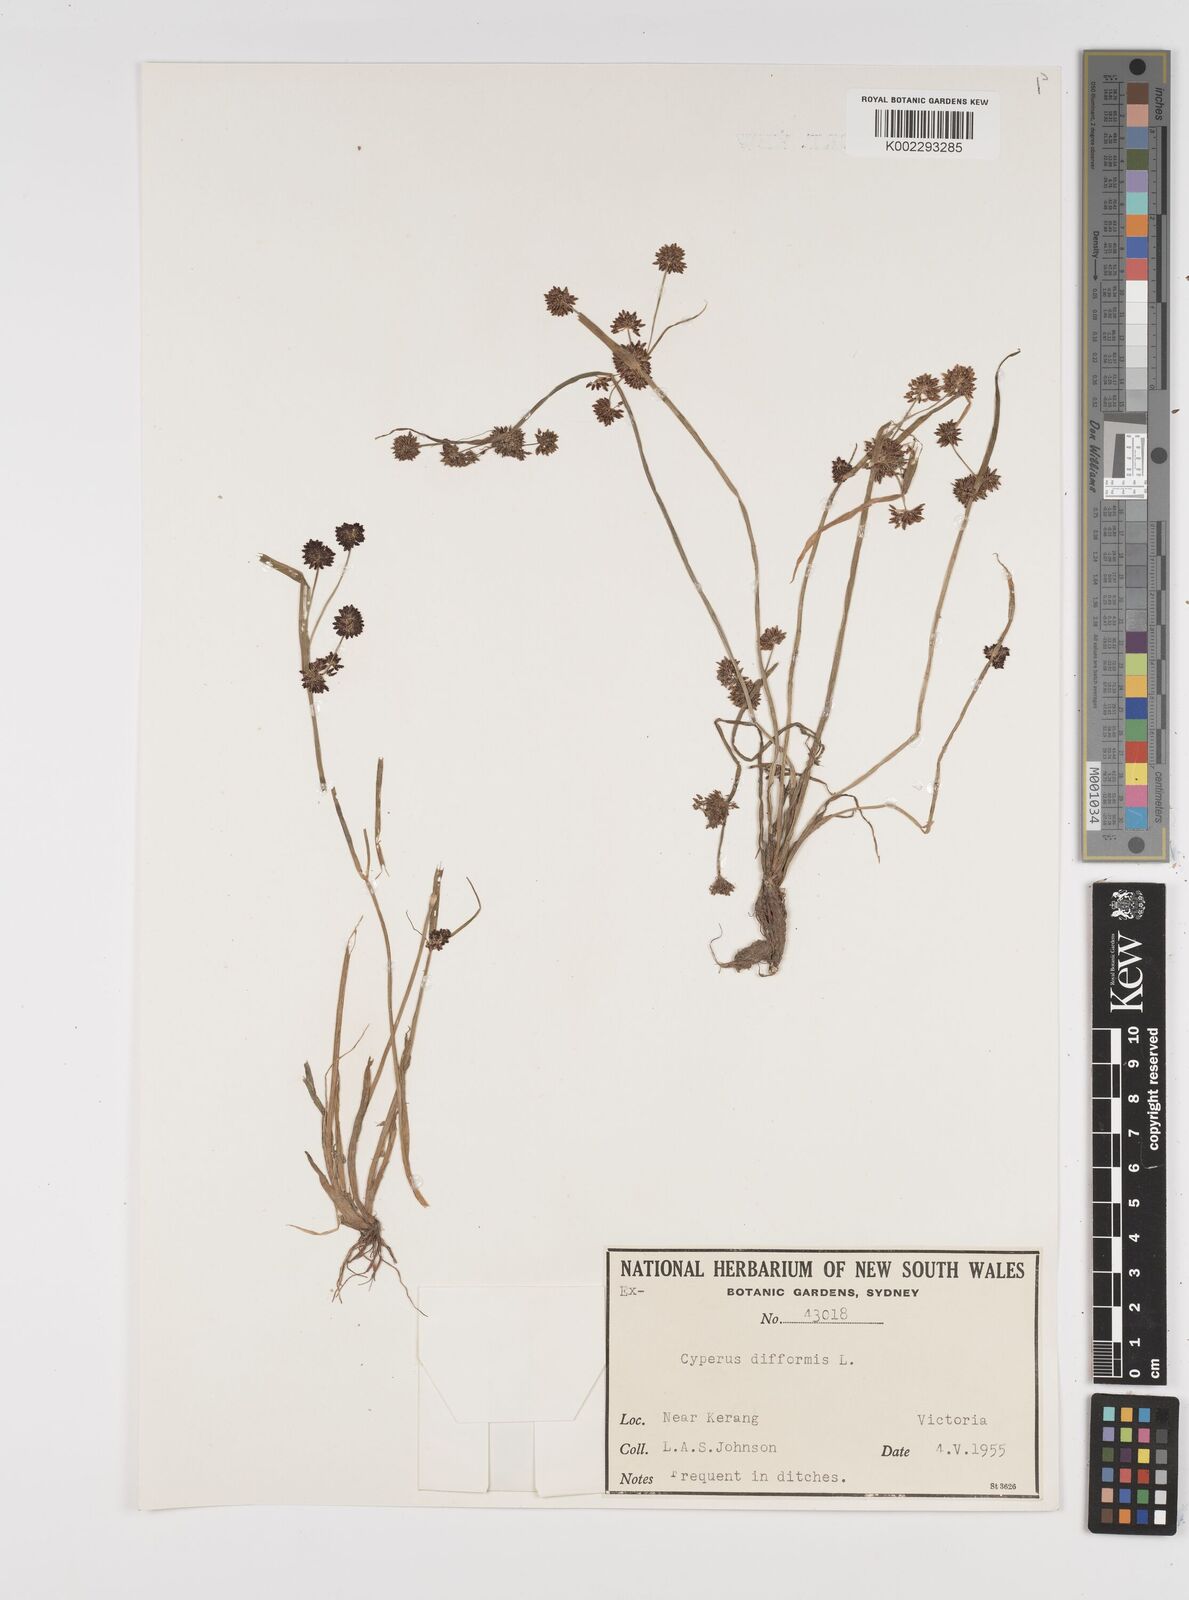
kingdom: Plantae
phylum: Tracheophyta
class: Liliopsida
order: Poales
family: Cyperaceae
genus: Cyperus
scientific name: Cyperus difformis
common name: Variable flatsedge
